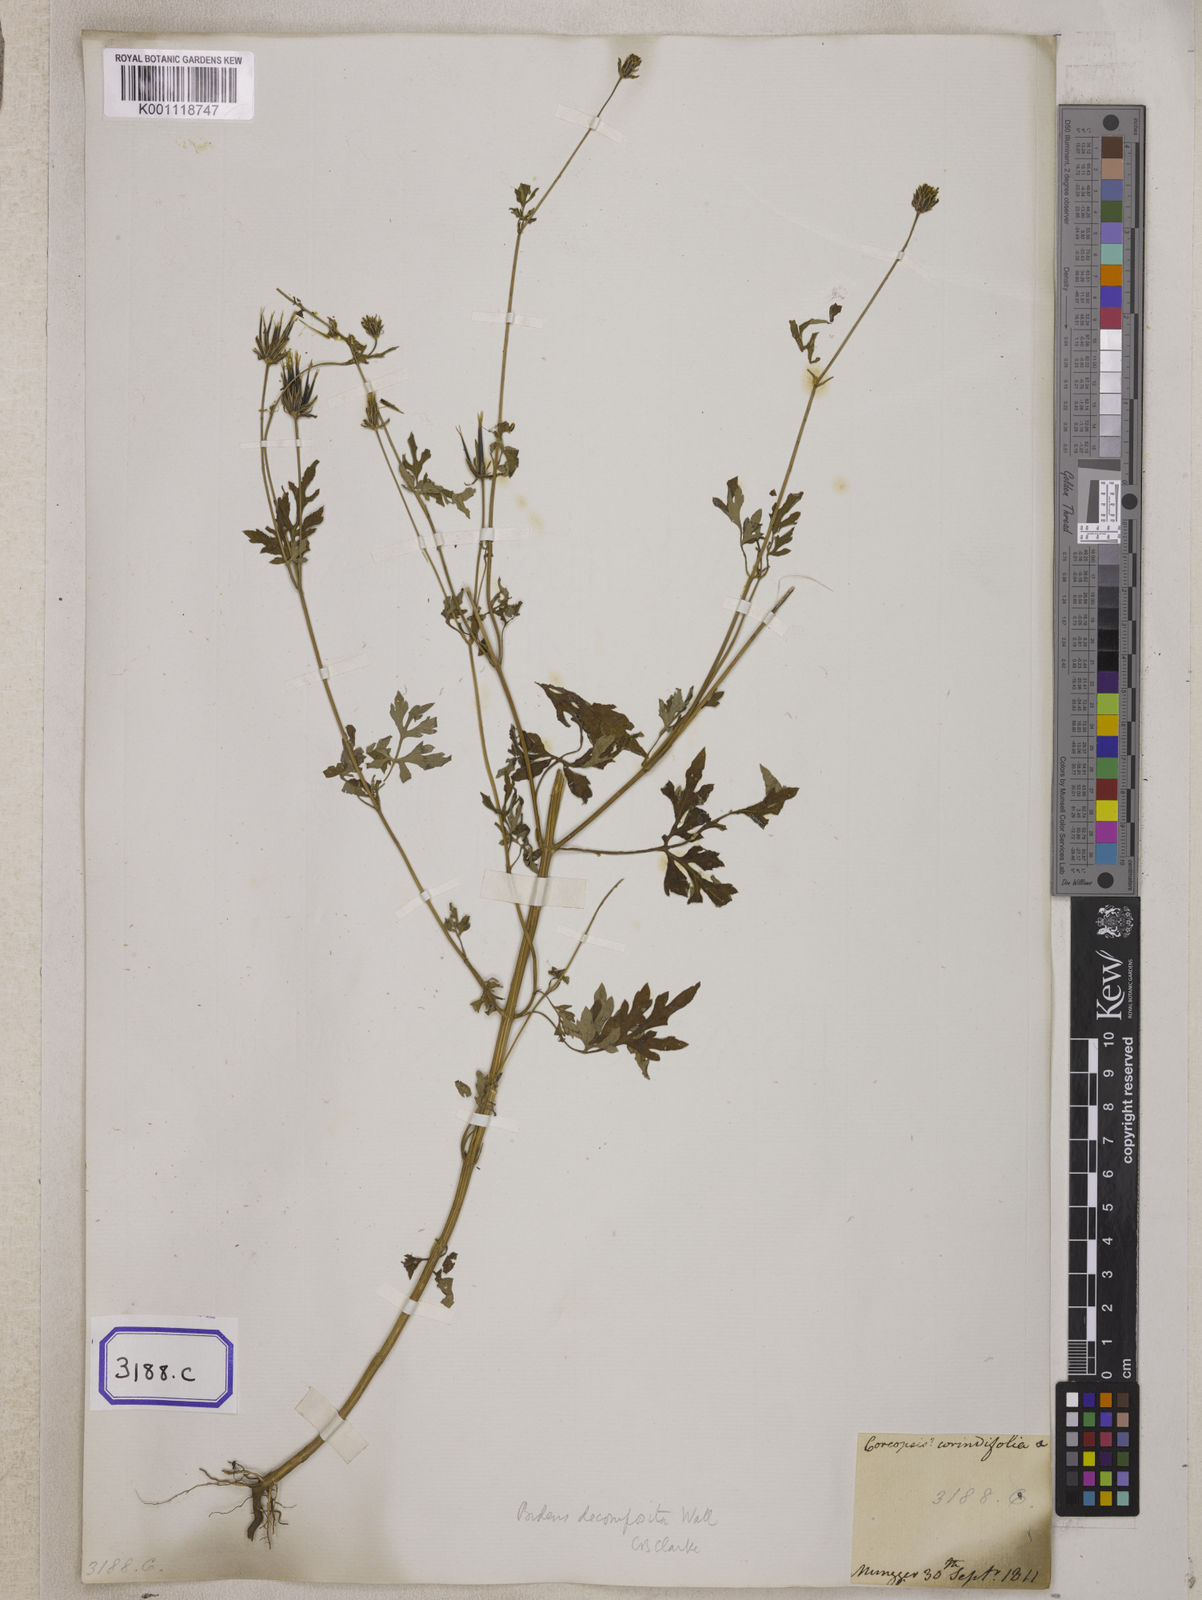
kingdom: Plantae
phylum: Tracheophyta
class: Magnoliopsida
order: Asterales
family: Asteraceae
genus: Bidens
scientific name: Bidens bipinnata
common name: Spanish-needles
